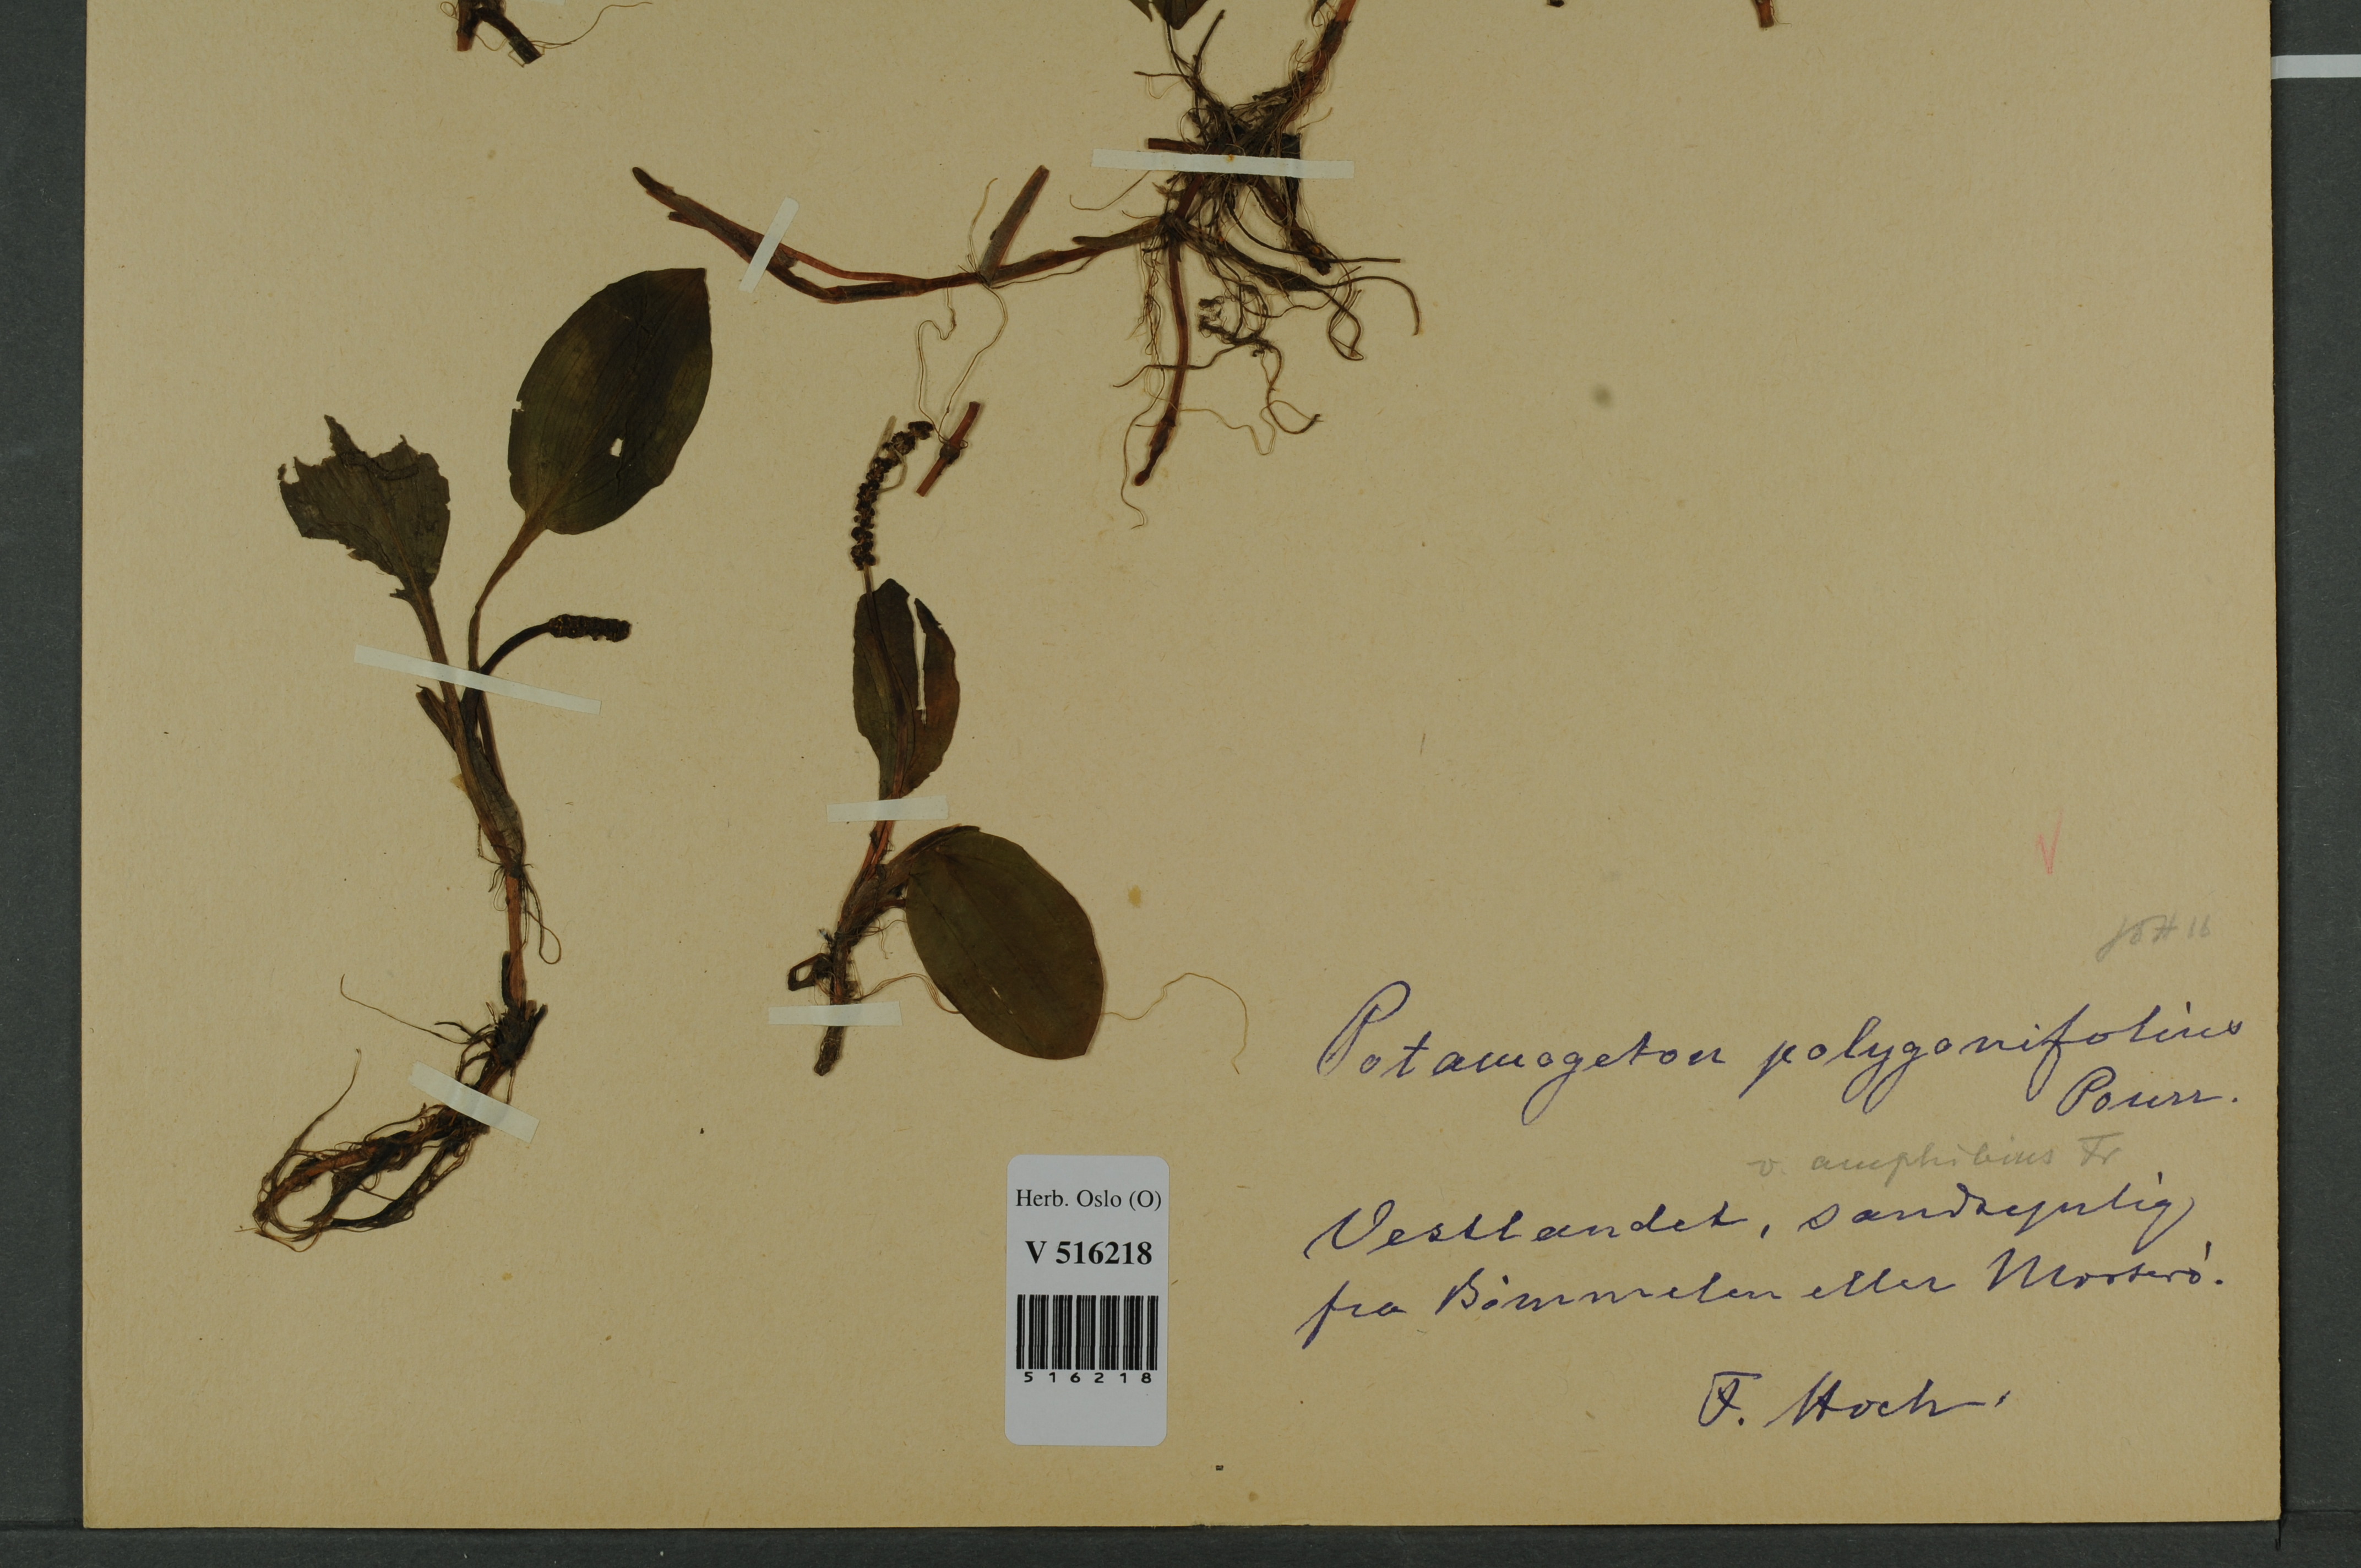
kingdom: Plantae
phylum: Tracheophyta
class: Liliopsida
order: Alismatales
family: Potamogetonaceae
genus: Potamogeton
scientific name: Potamogeton polygonifolius
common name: Bog pondweed
